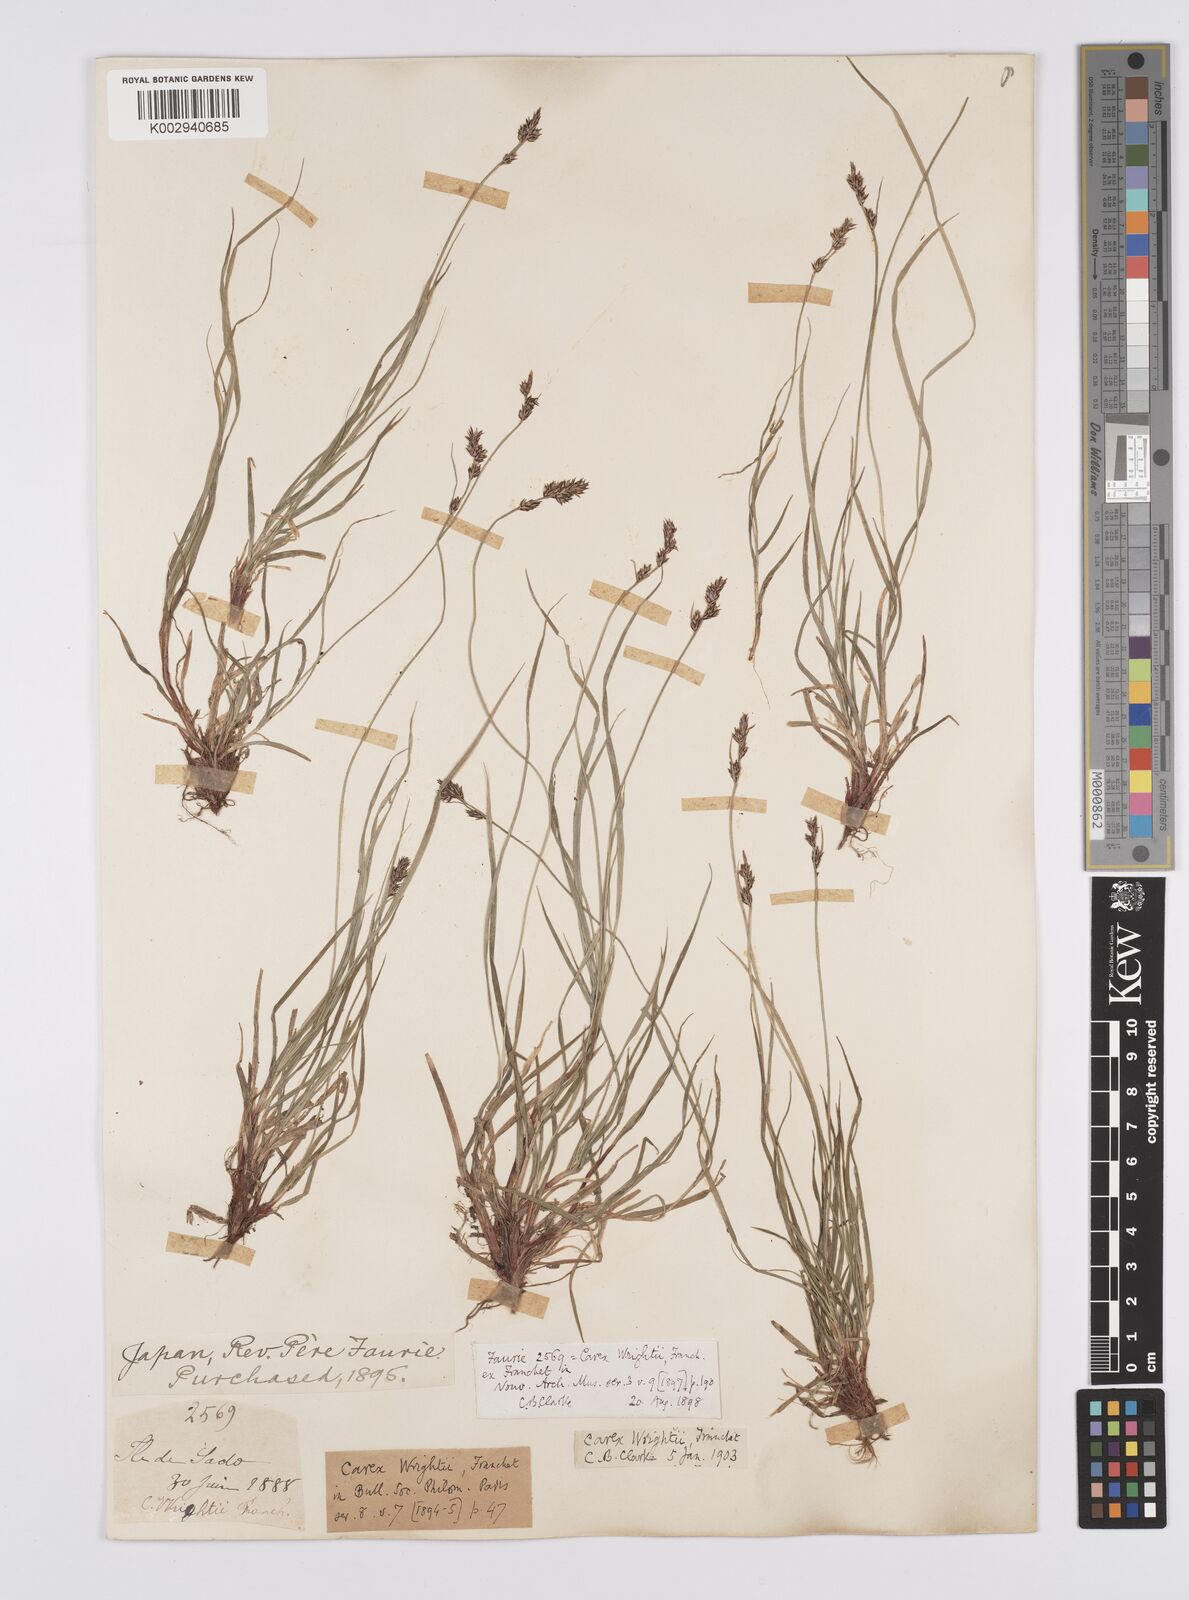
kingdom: Plantae
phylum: Tracheophyta
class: Liliopsida
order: Poales
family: Cyperaceae
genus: Carex
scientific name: Carex oxyandra
